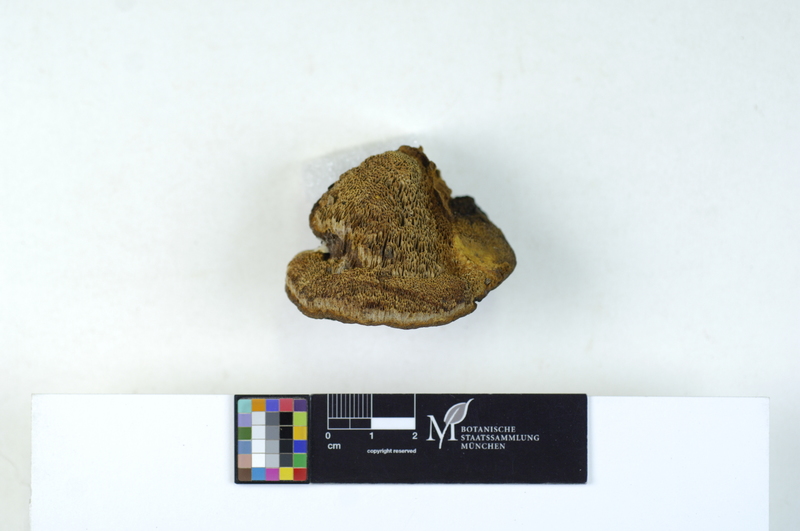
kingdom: Plantae
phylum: Tracheophyta
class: Pinopsida
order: Pinales
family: Pinaceae
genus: Pinus
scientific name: Pinus sylvestris
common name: Scots pine
